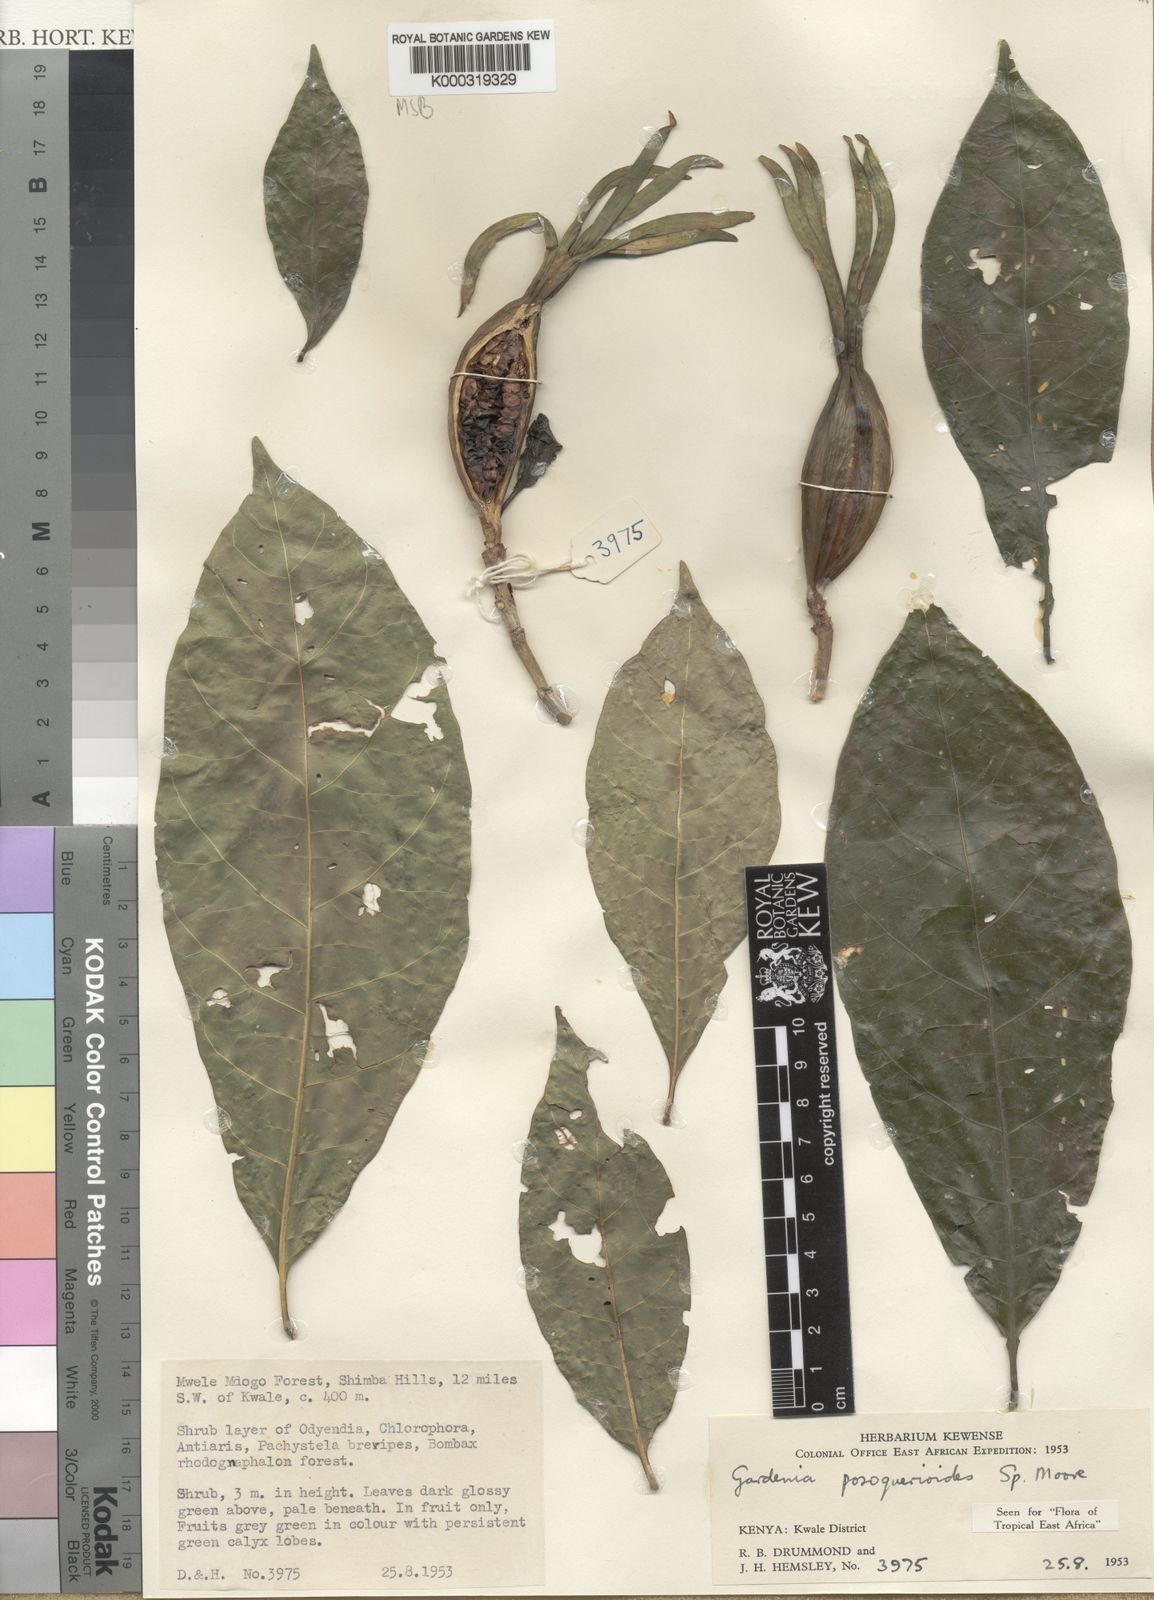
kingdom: Plantae
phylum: Tracheophyta
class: Magnoliopsida
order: Gentianales
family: Rubiaceae
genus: Gardenia
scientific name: Gardenia posoquerioides
